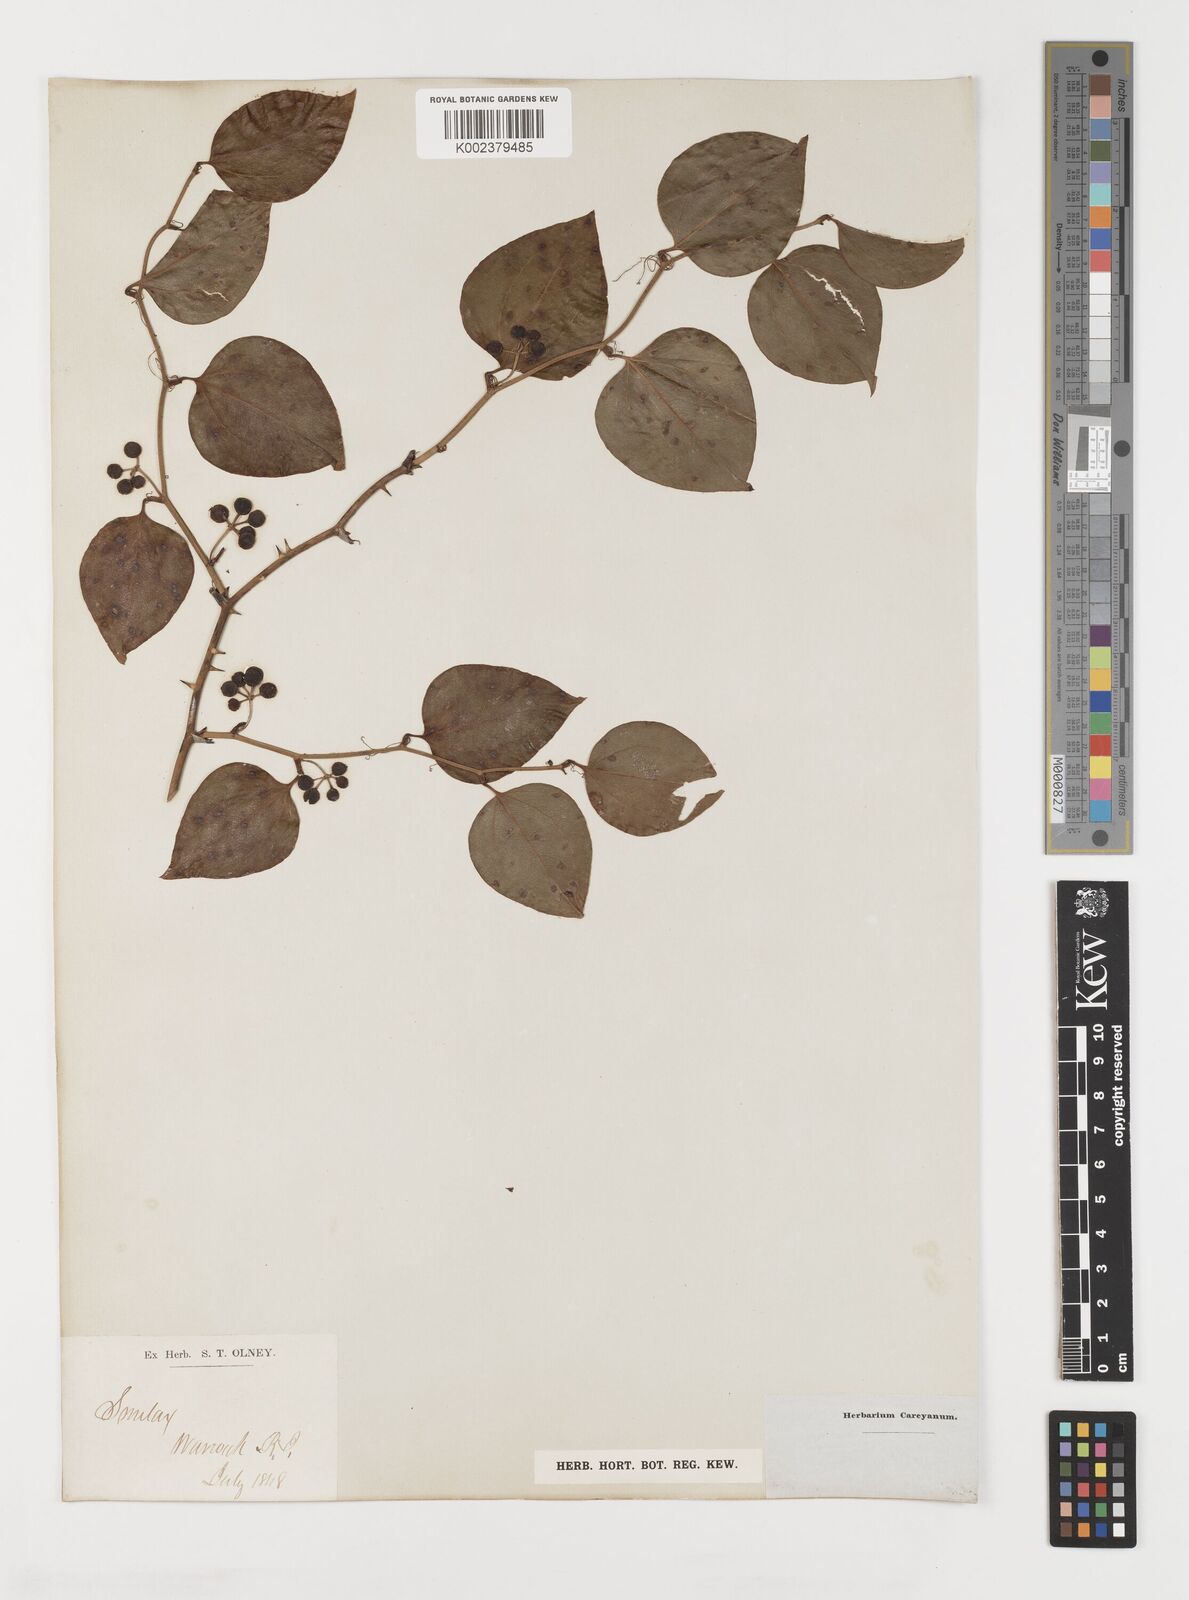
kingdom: Plantae
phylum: Tracheophyta
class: Liliopsida
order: Liliales
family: Smilacaceae
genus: Smilax
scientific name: Smilax
